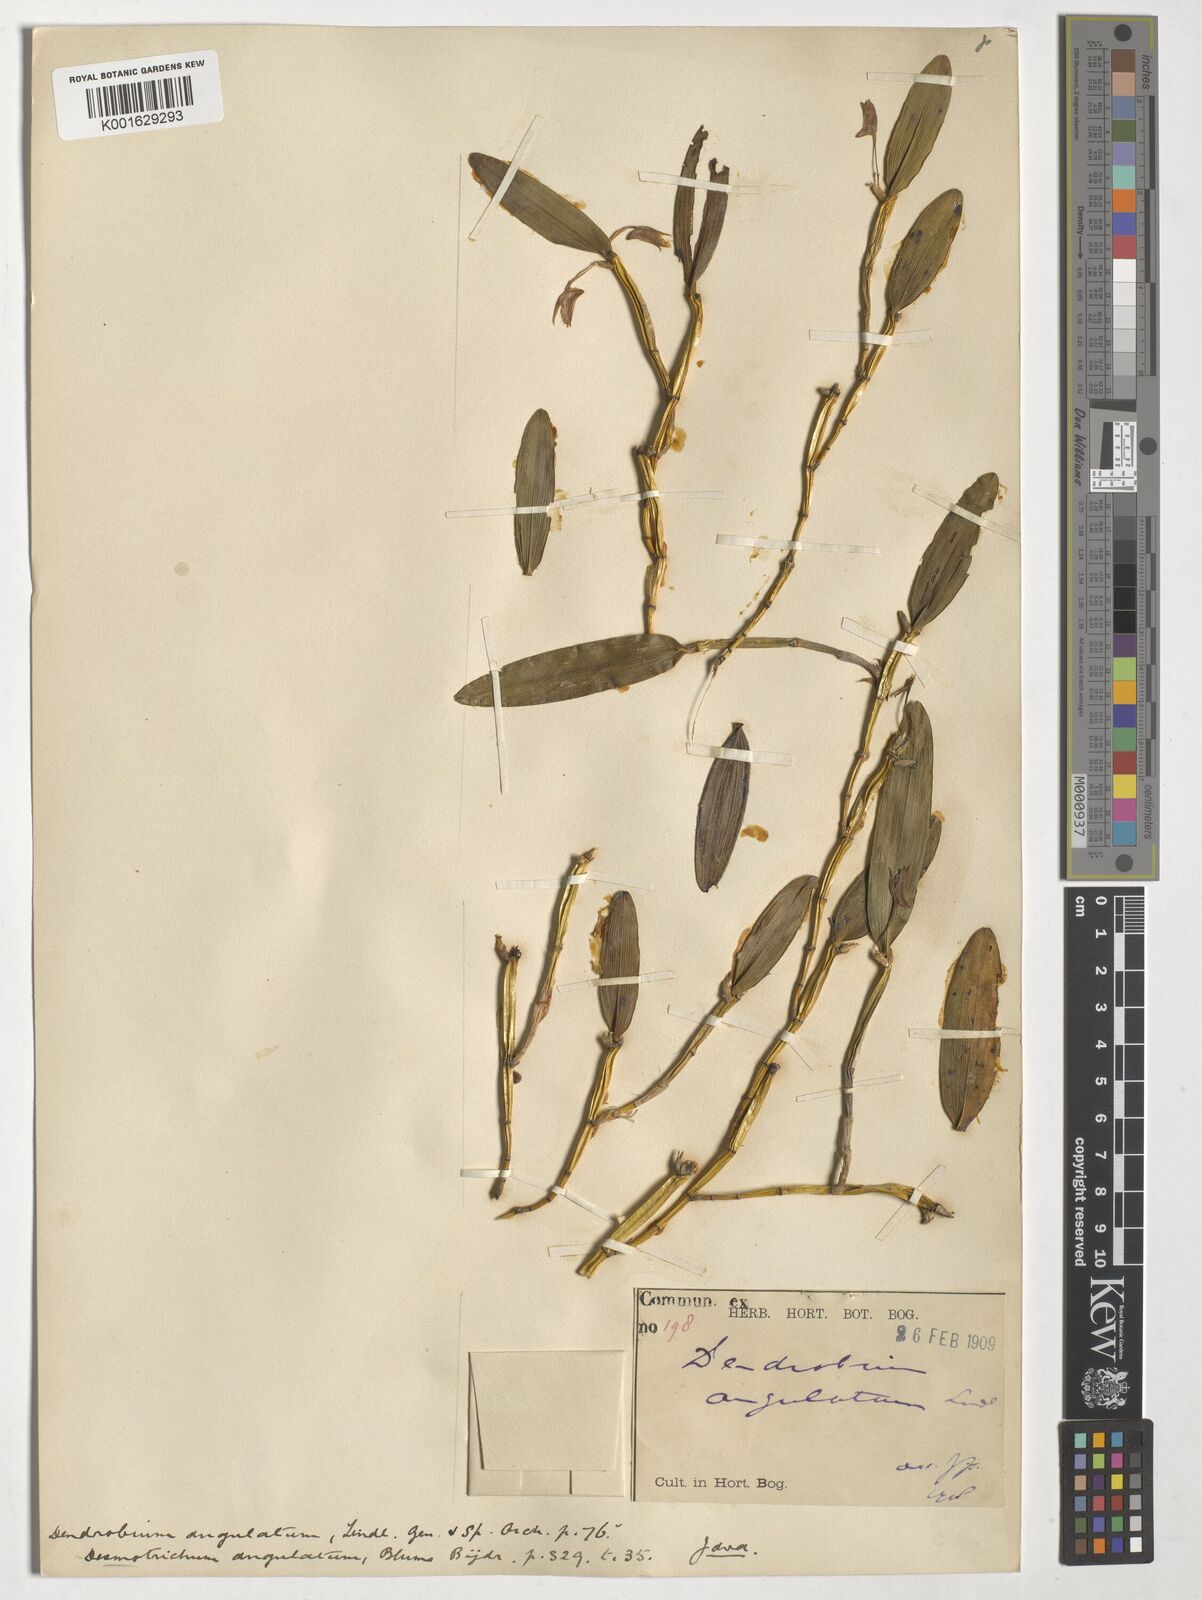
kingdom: Plantae
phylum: Tracheophyta
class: Liliopsida
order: Asparagales
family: Orchidaceae
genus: Bulbophyllum
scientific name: Bulbophyllum
